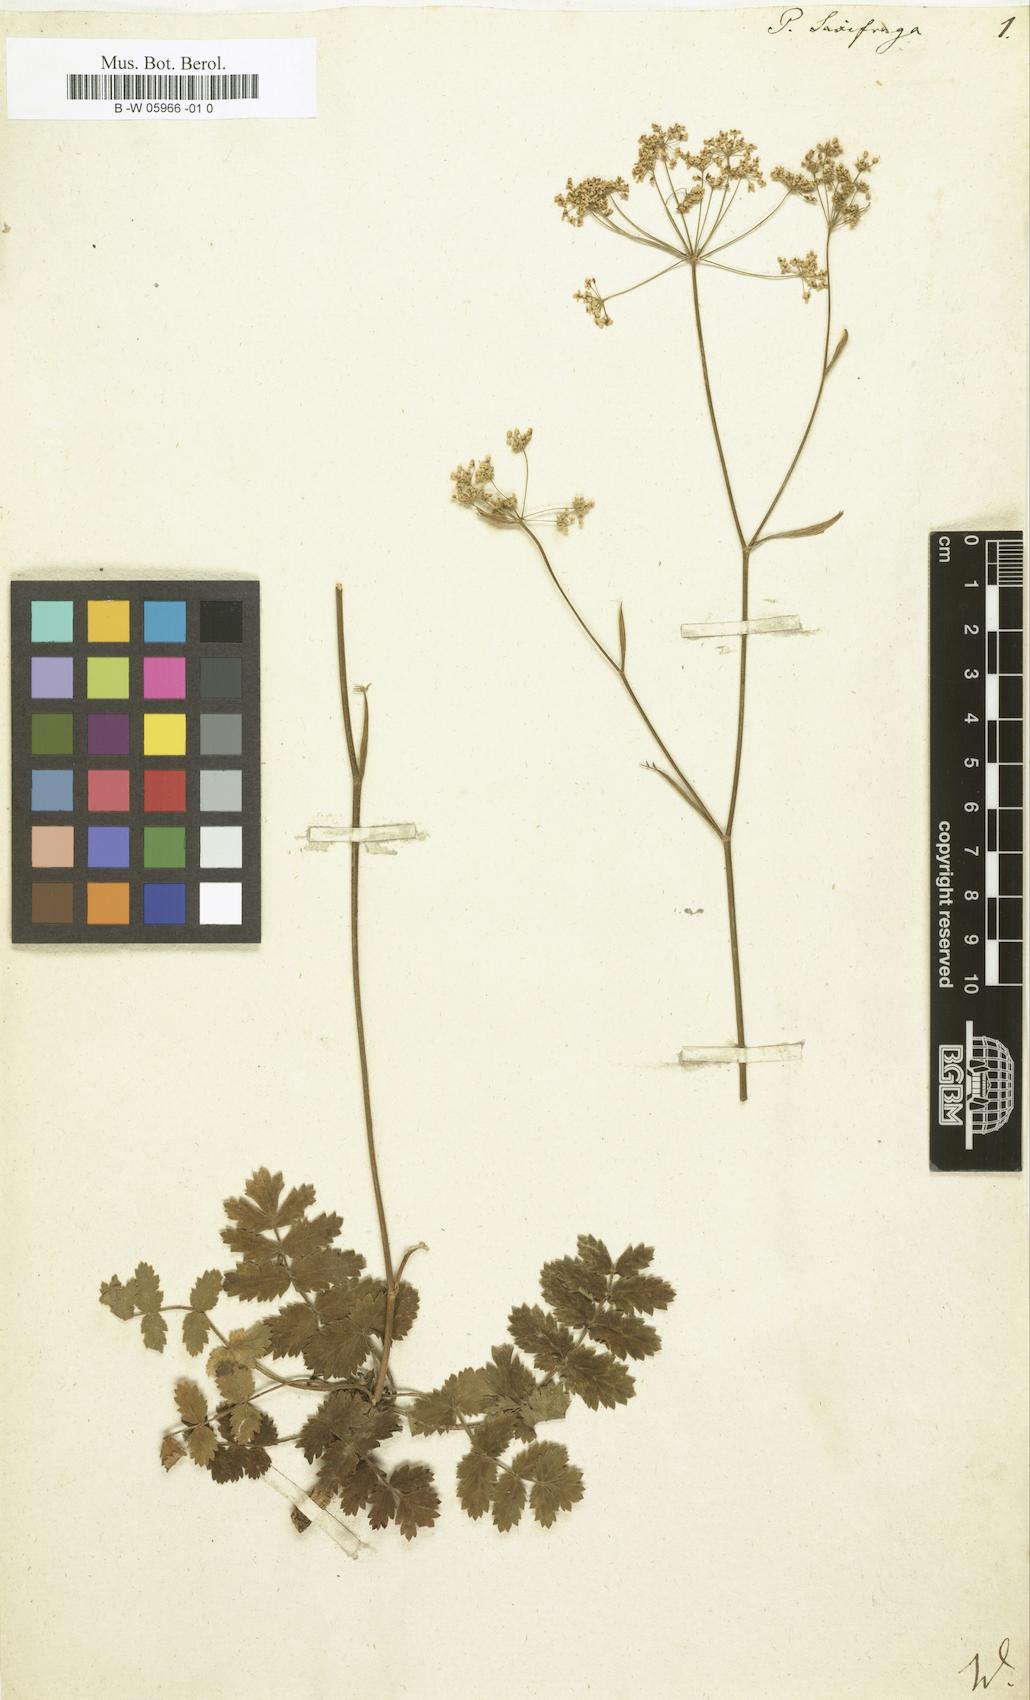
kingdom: Plantae
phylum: Tracheophyta
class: Magnoliopsida
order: Apiales
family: Apiaceae
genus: Pimpinella
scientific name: Pimpinella saxifraga
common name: Burnet-saxifrage
